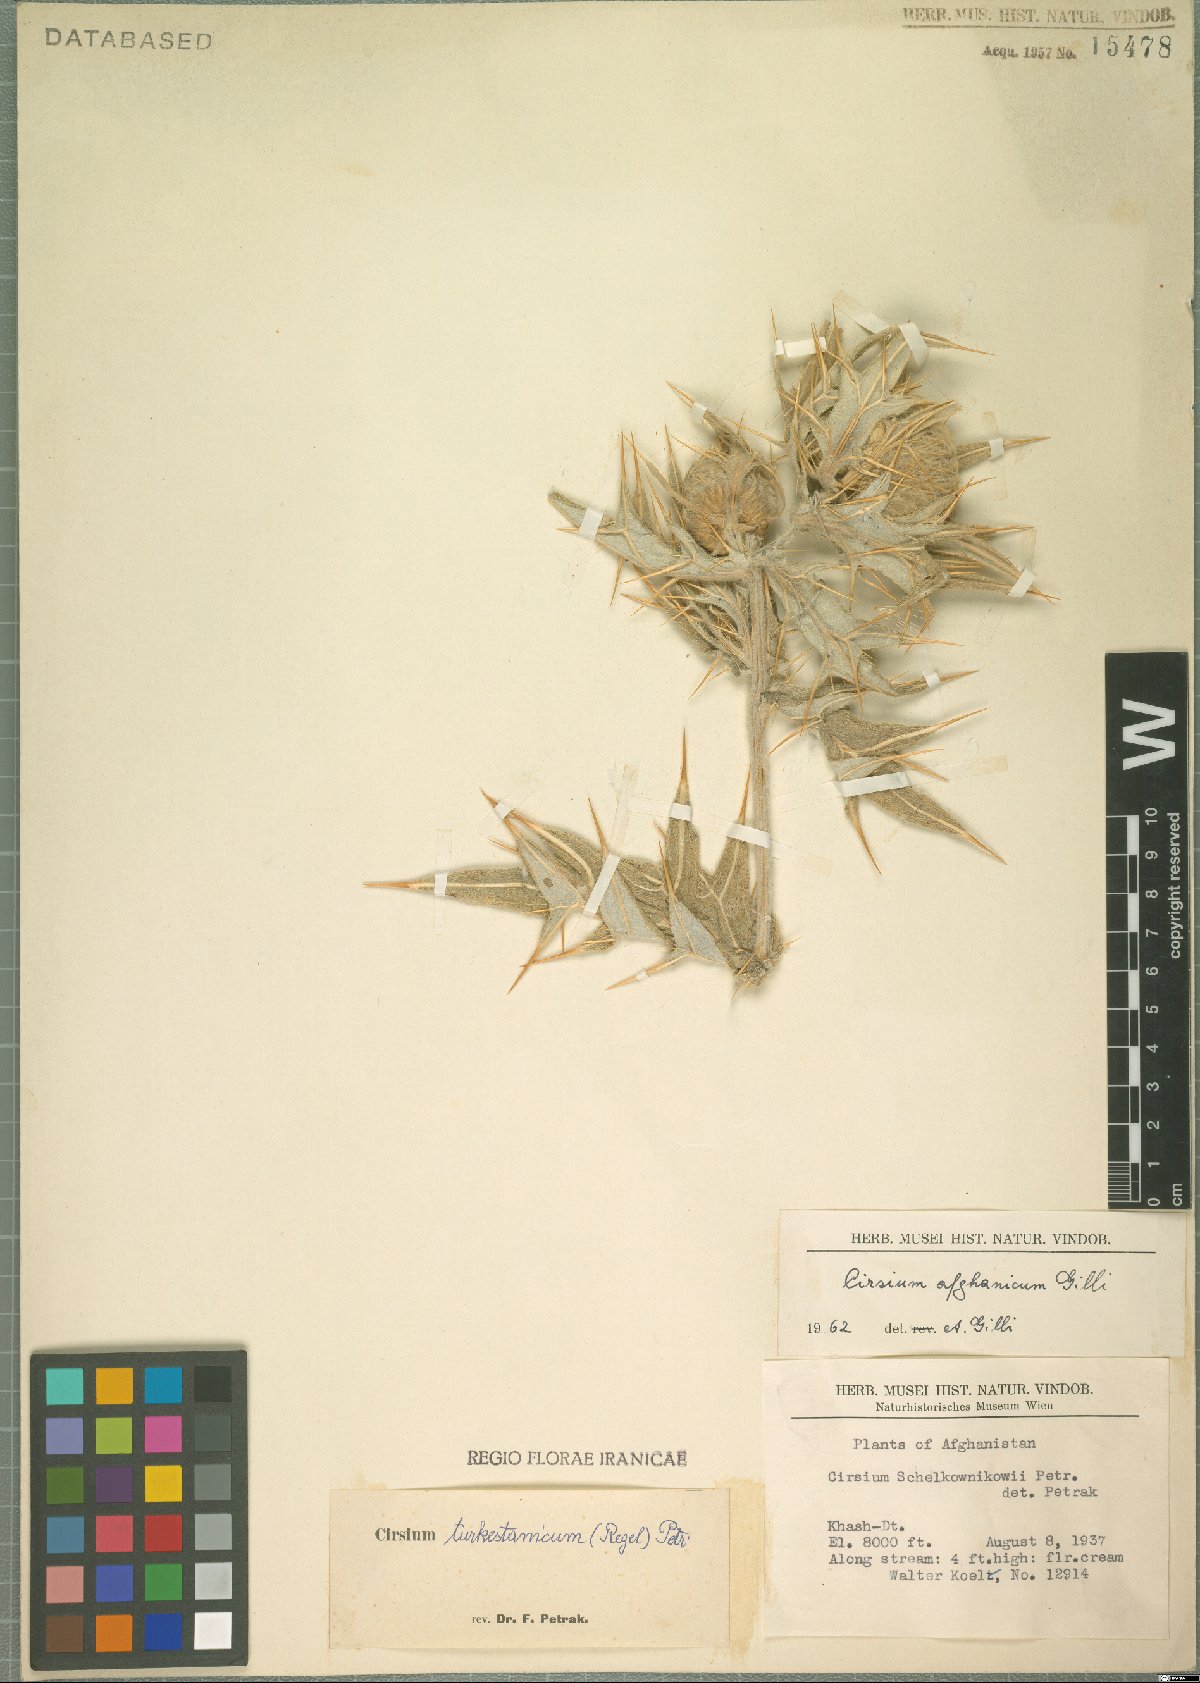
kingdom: Plantae
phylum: Tracheophyta
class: Magnoliopsida
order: Asterales
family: Asteraceae
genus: Lophiolepis
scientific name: Lophiolepis turkestanica
